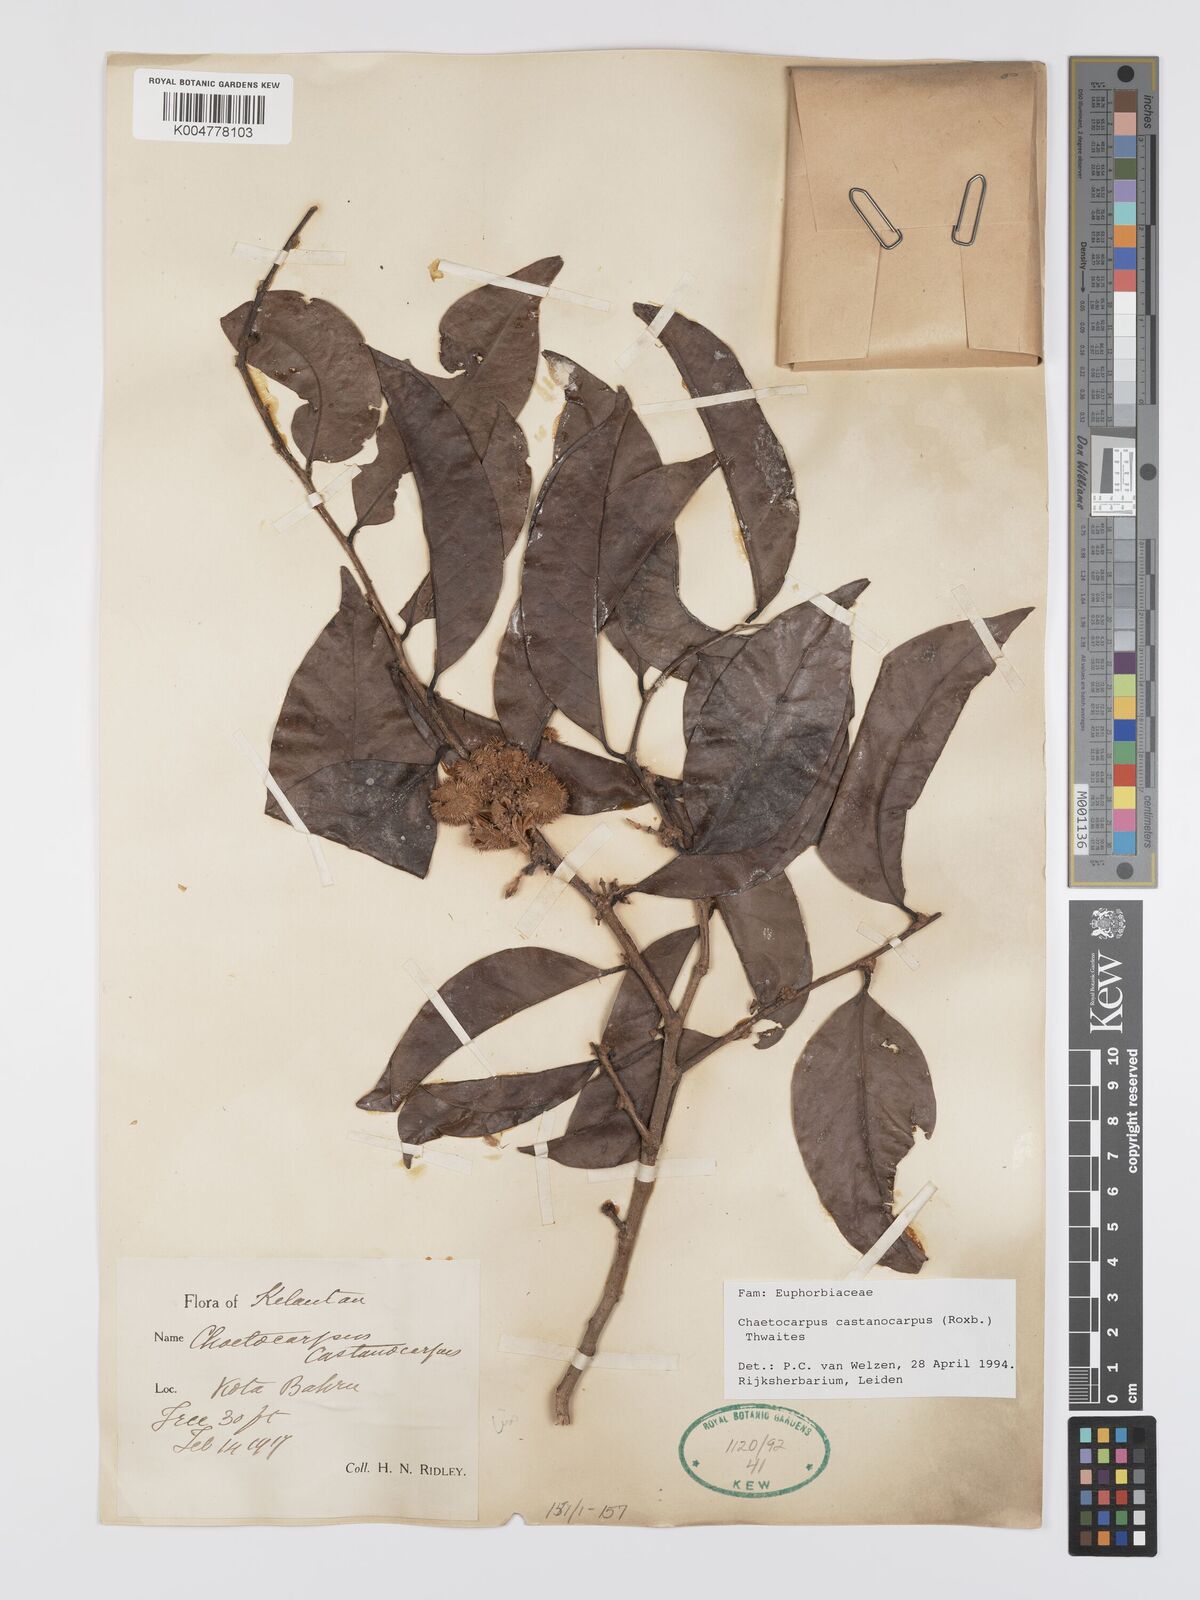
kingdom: Plantae
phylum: Tracheophyta
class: Magnoliopsida
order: Malpighiales
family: Peraceae
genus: Chaetocarpus
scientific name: Chaetocarpus castanocarpus
